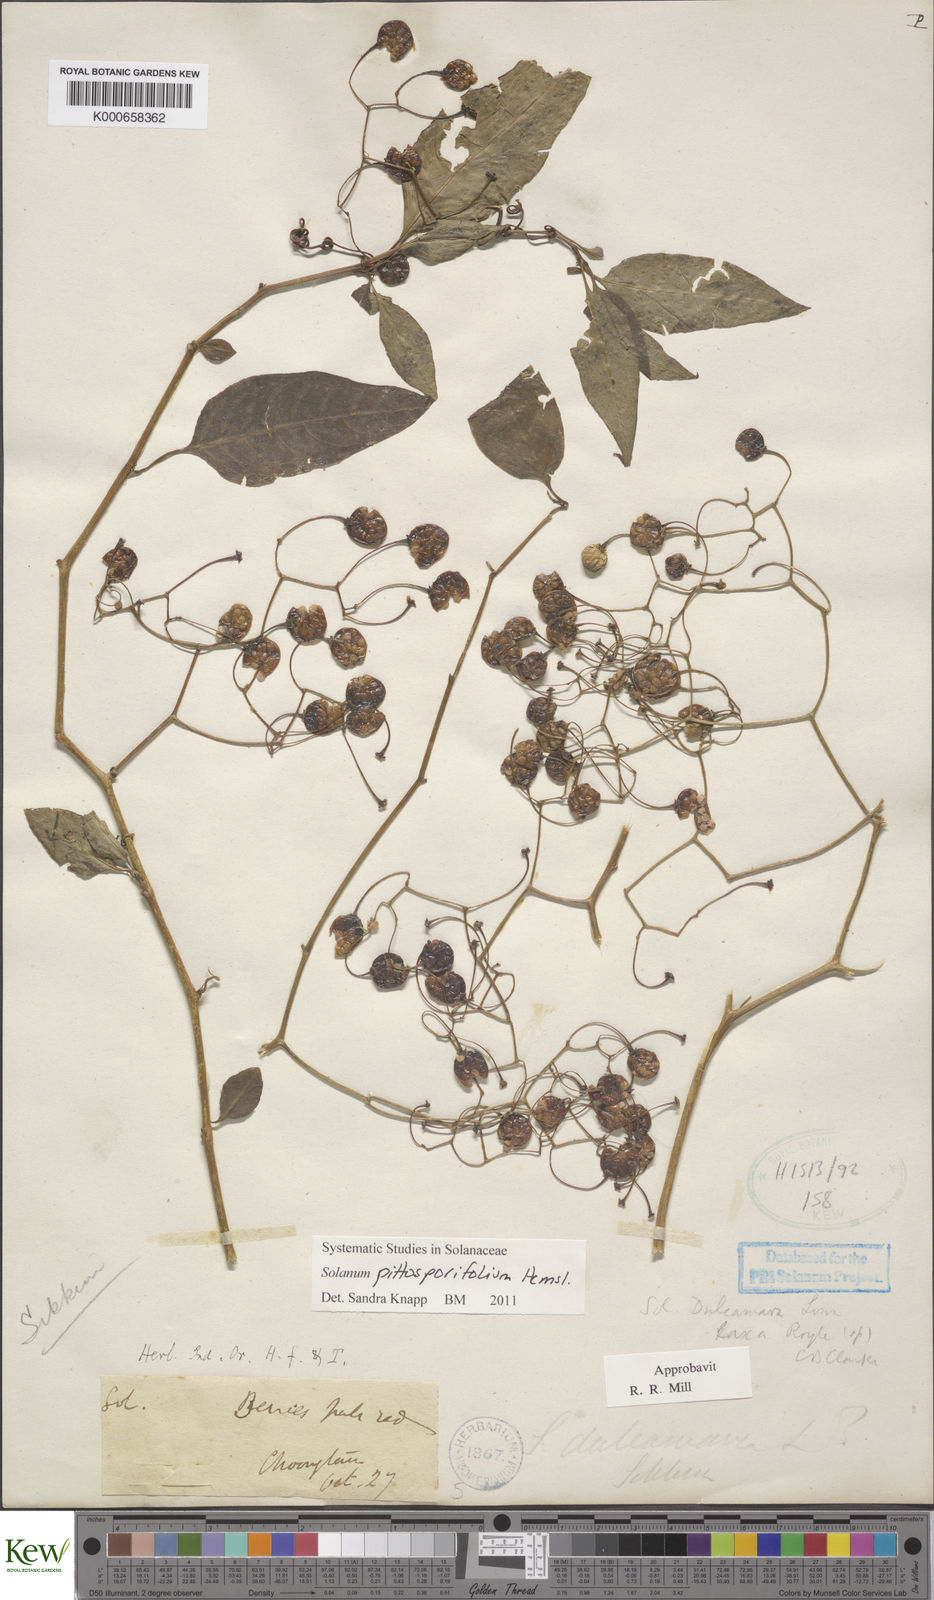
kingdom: Plantae
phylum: Tracheophyta
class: Magnoliopsida
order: Solanales
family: Solanaceae
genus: Solanum
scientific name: Solanum pittosporifolium
